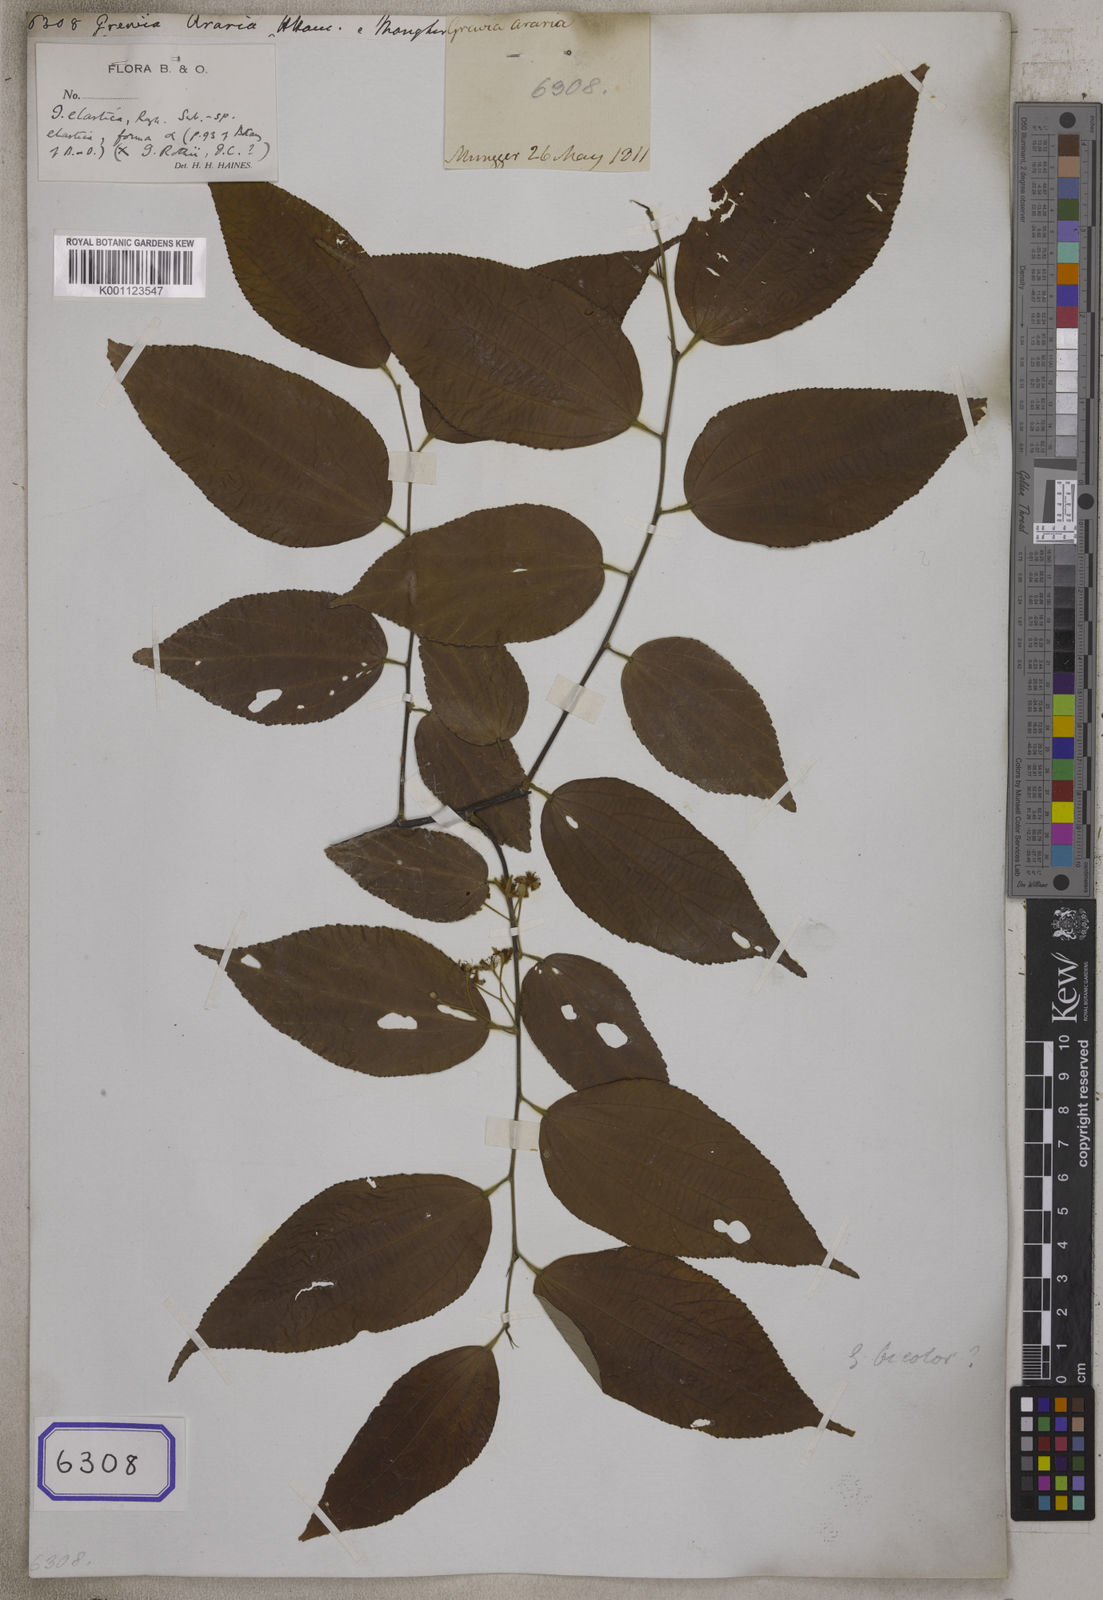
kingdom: Plantae
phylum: Tracheophyta
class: Magnoliopsida
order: Malvales
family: Malvaceae
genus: Grewia
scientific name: Grewia
